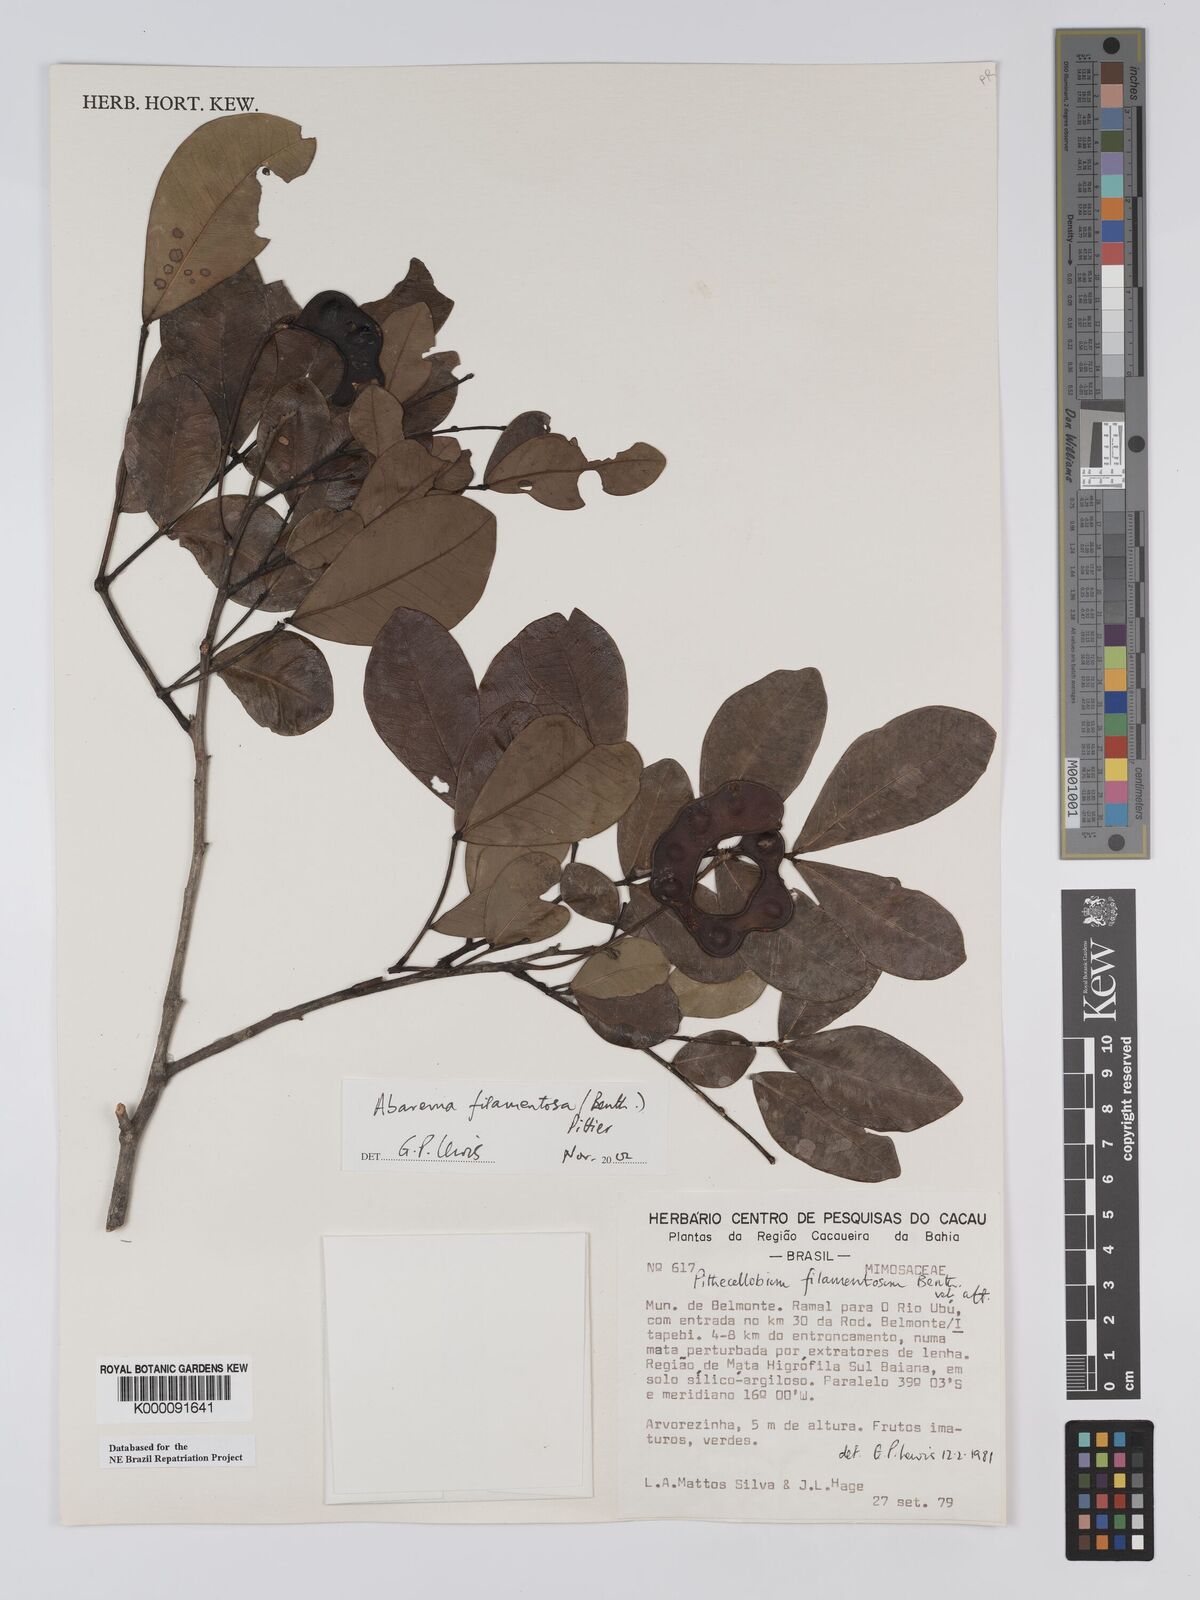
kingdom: Plantae
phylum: Tracheophyta
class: Magnoliopsida
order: Fabales
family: Fabaceae
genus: Jupunba
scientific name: Jupunba filamentosa
